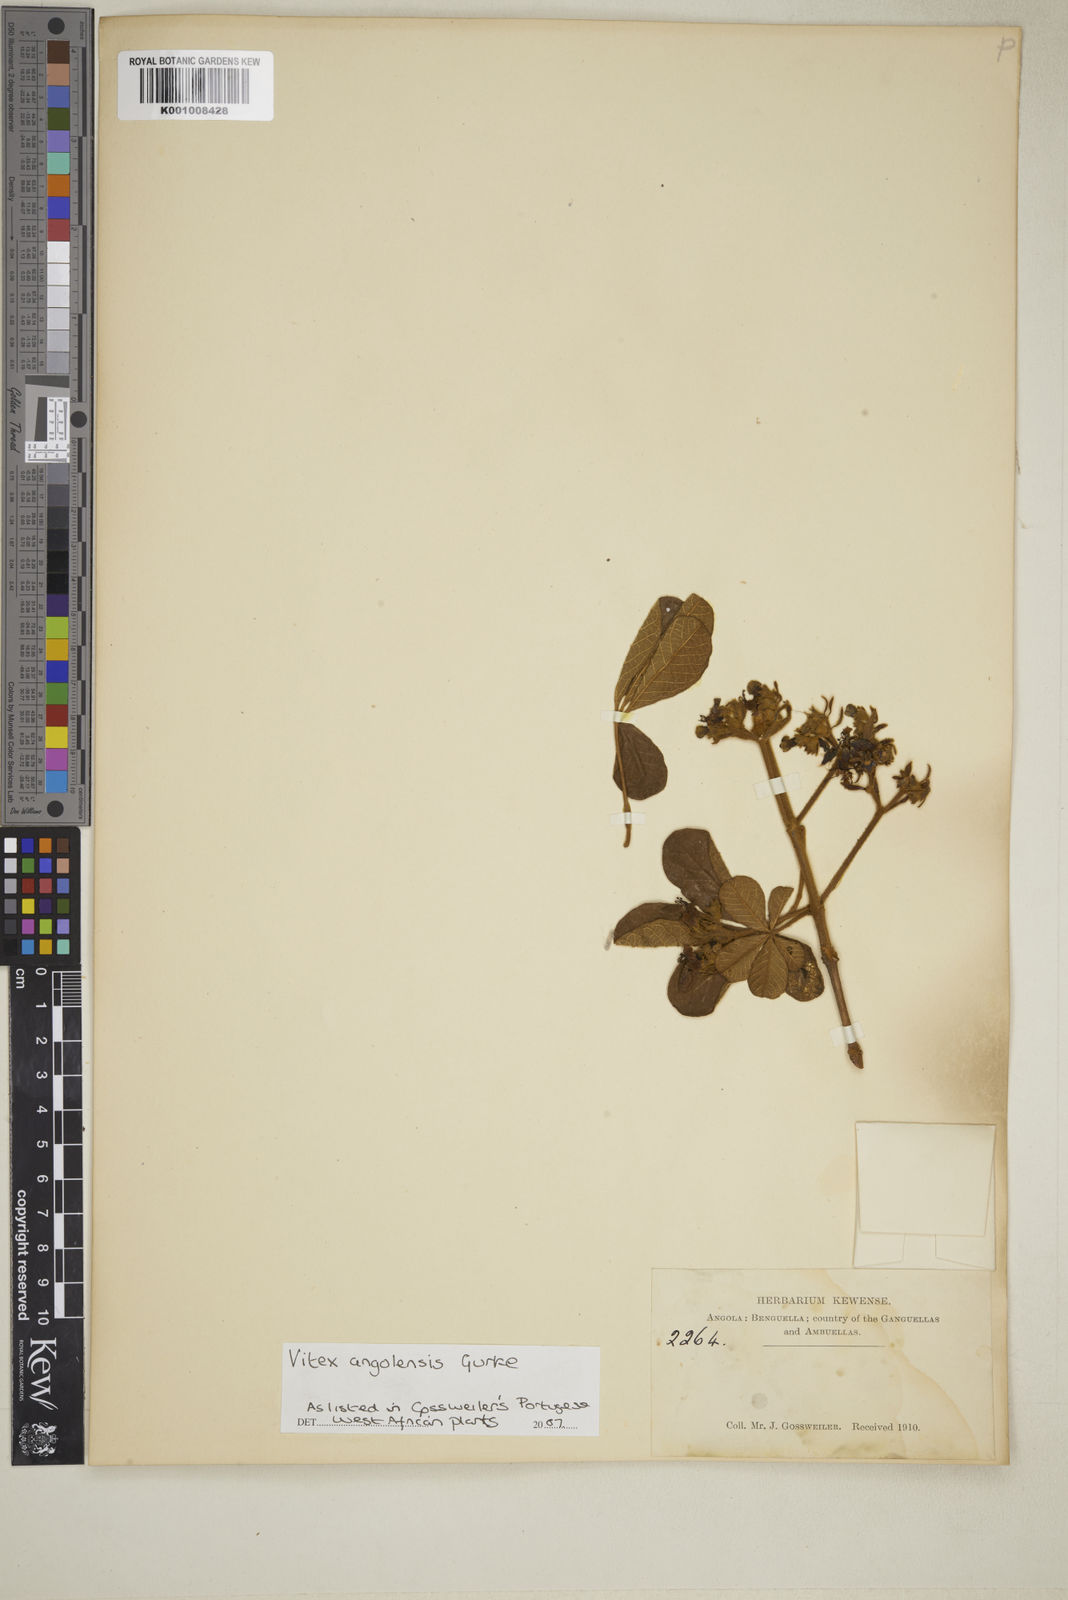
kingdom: Plantae
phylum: Tracheophyta
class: Magnoliopsida
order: Lamiales
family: Lamiaceae
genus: Vitex
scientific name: Vitex
